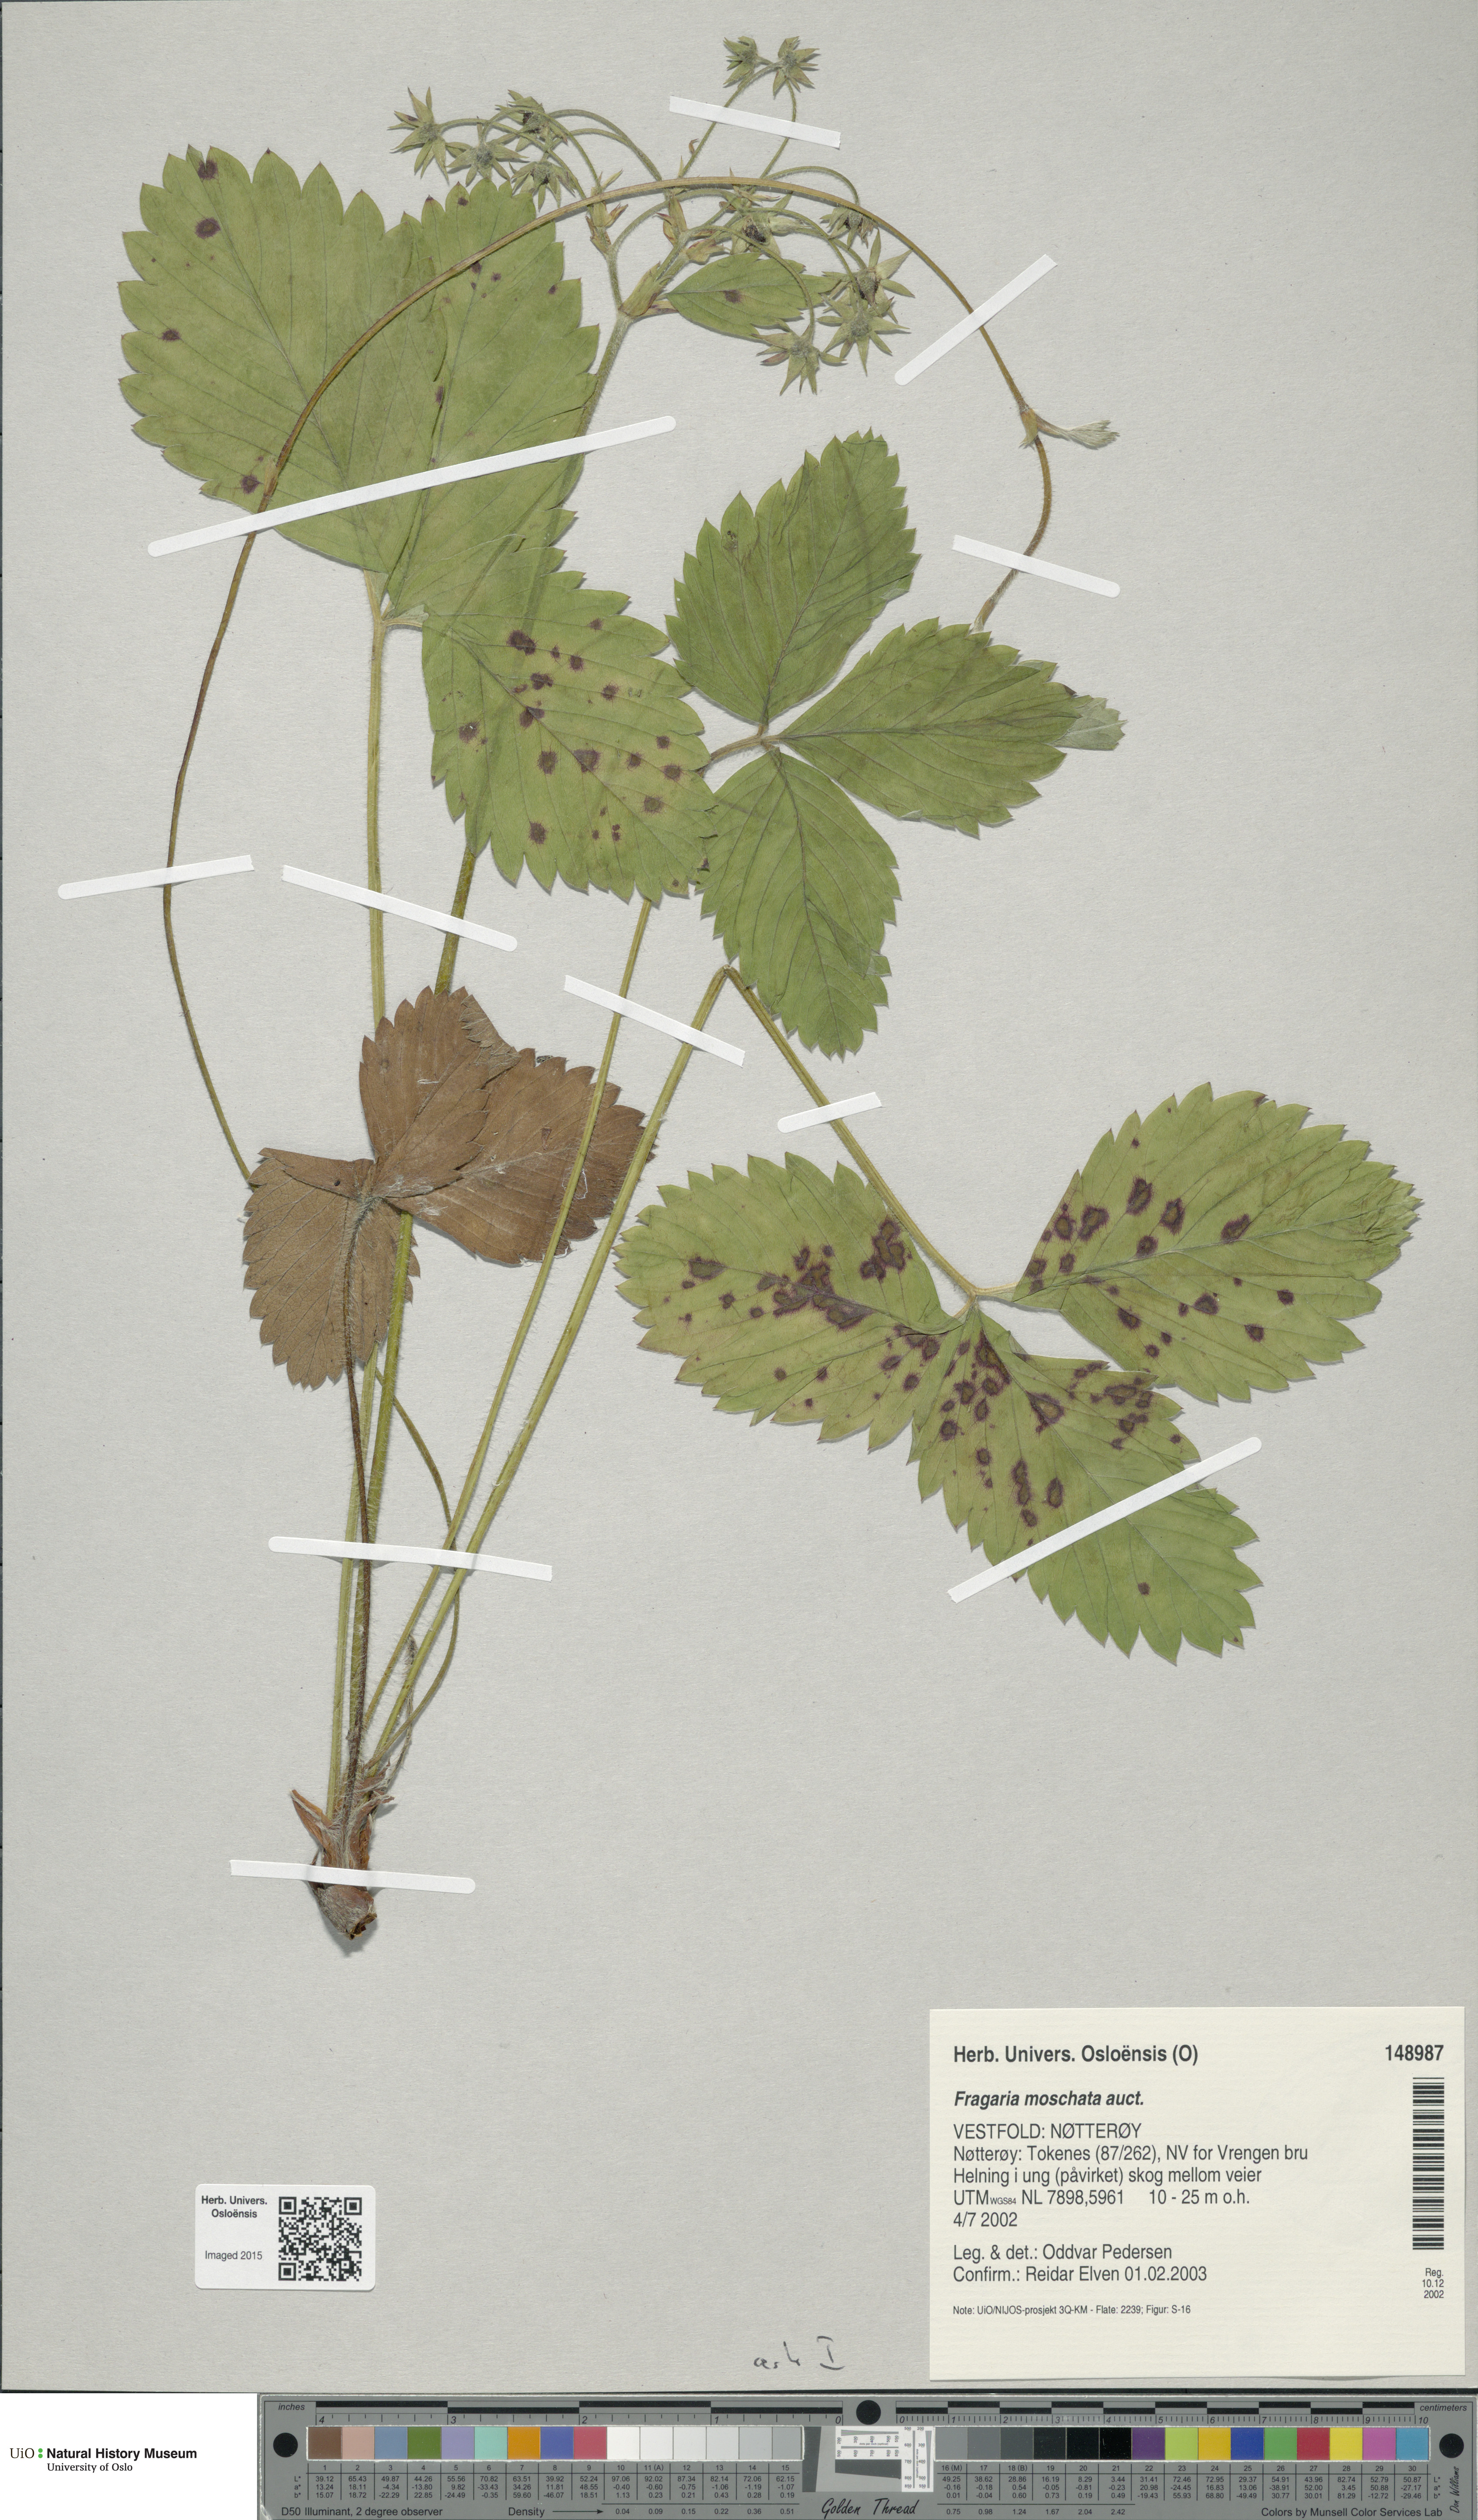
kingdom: Plantae
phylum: Tracheophyta
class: Magnoliopsida
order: Rosales
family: Rosaceae
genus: Fragaria
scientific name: Fragaria moschata
